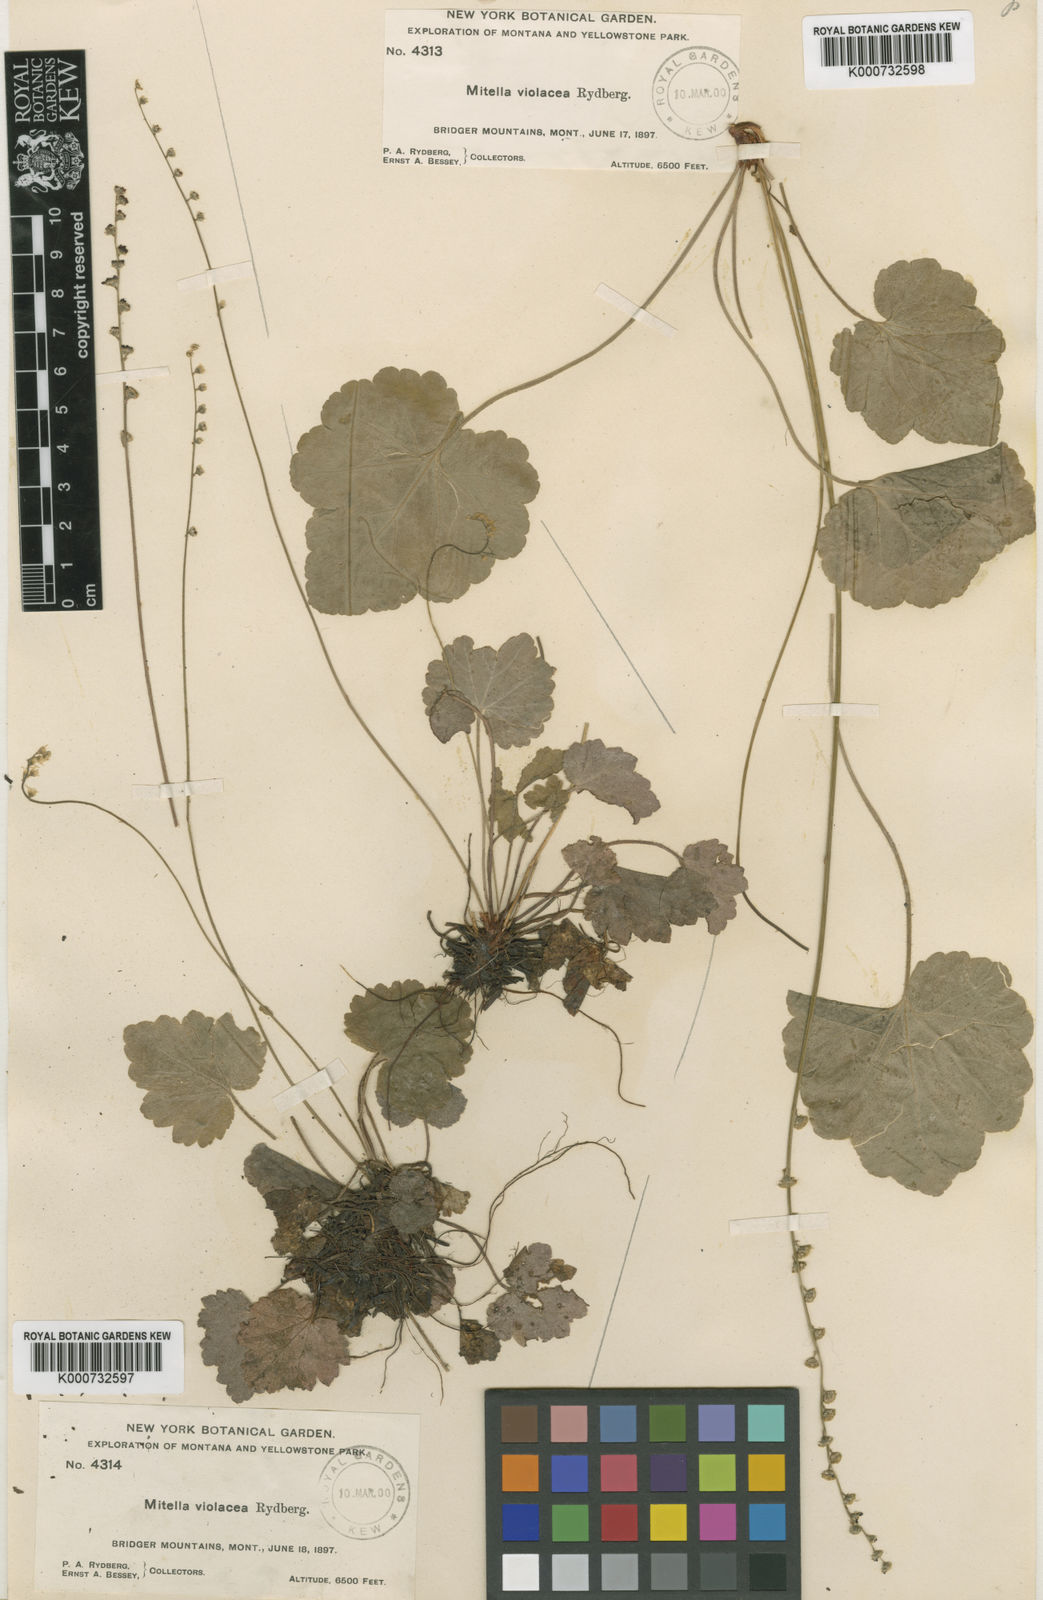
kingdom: Plantae
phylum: Tracheophyta
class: Magnoliopsida
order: Saxifragales
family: Saxifragaceae
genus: Ozomelis
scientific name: Ozomelis trifida
